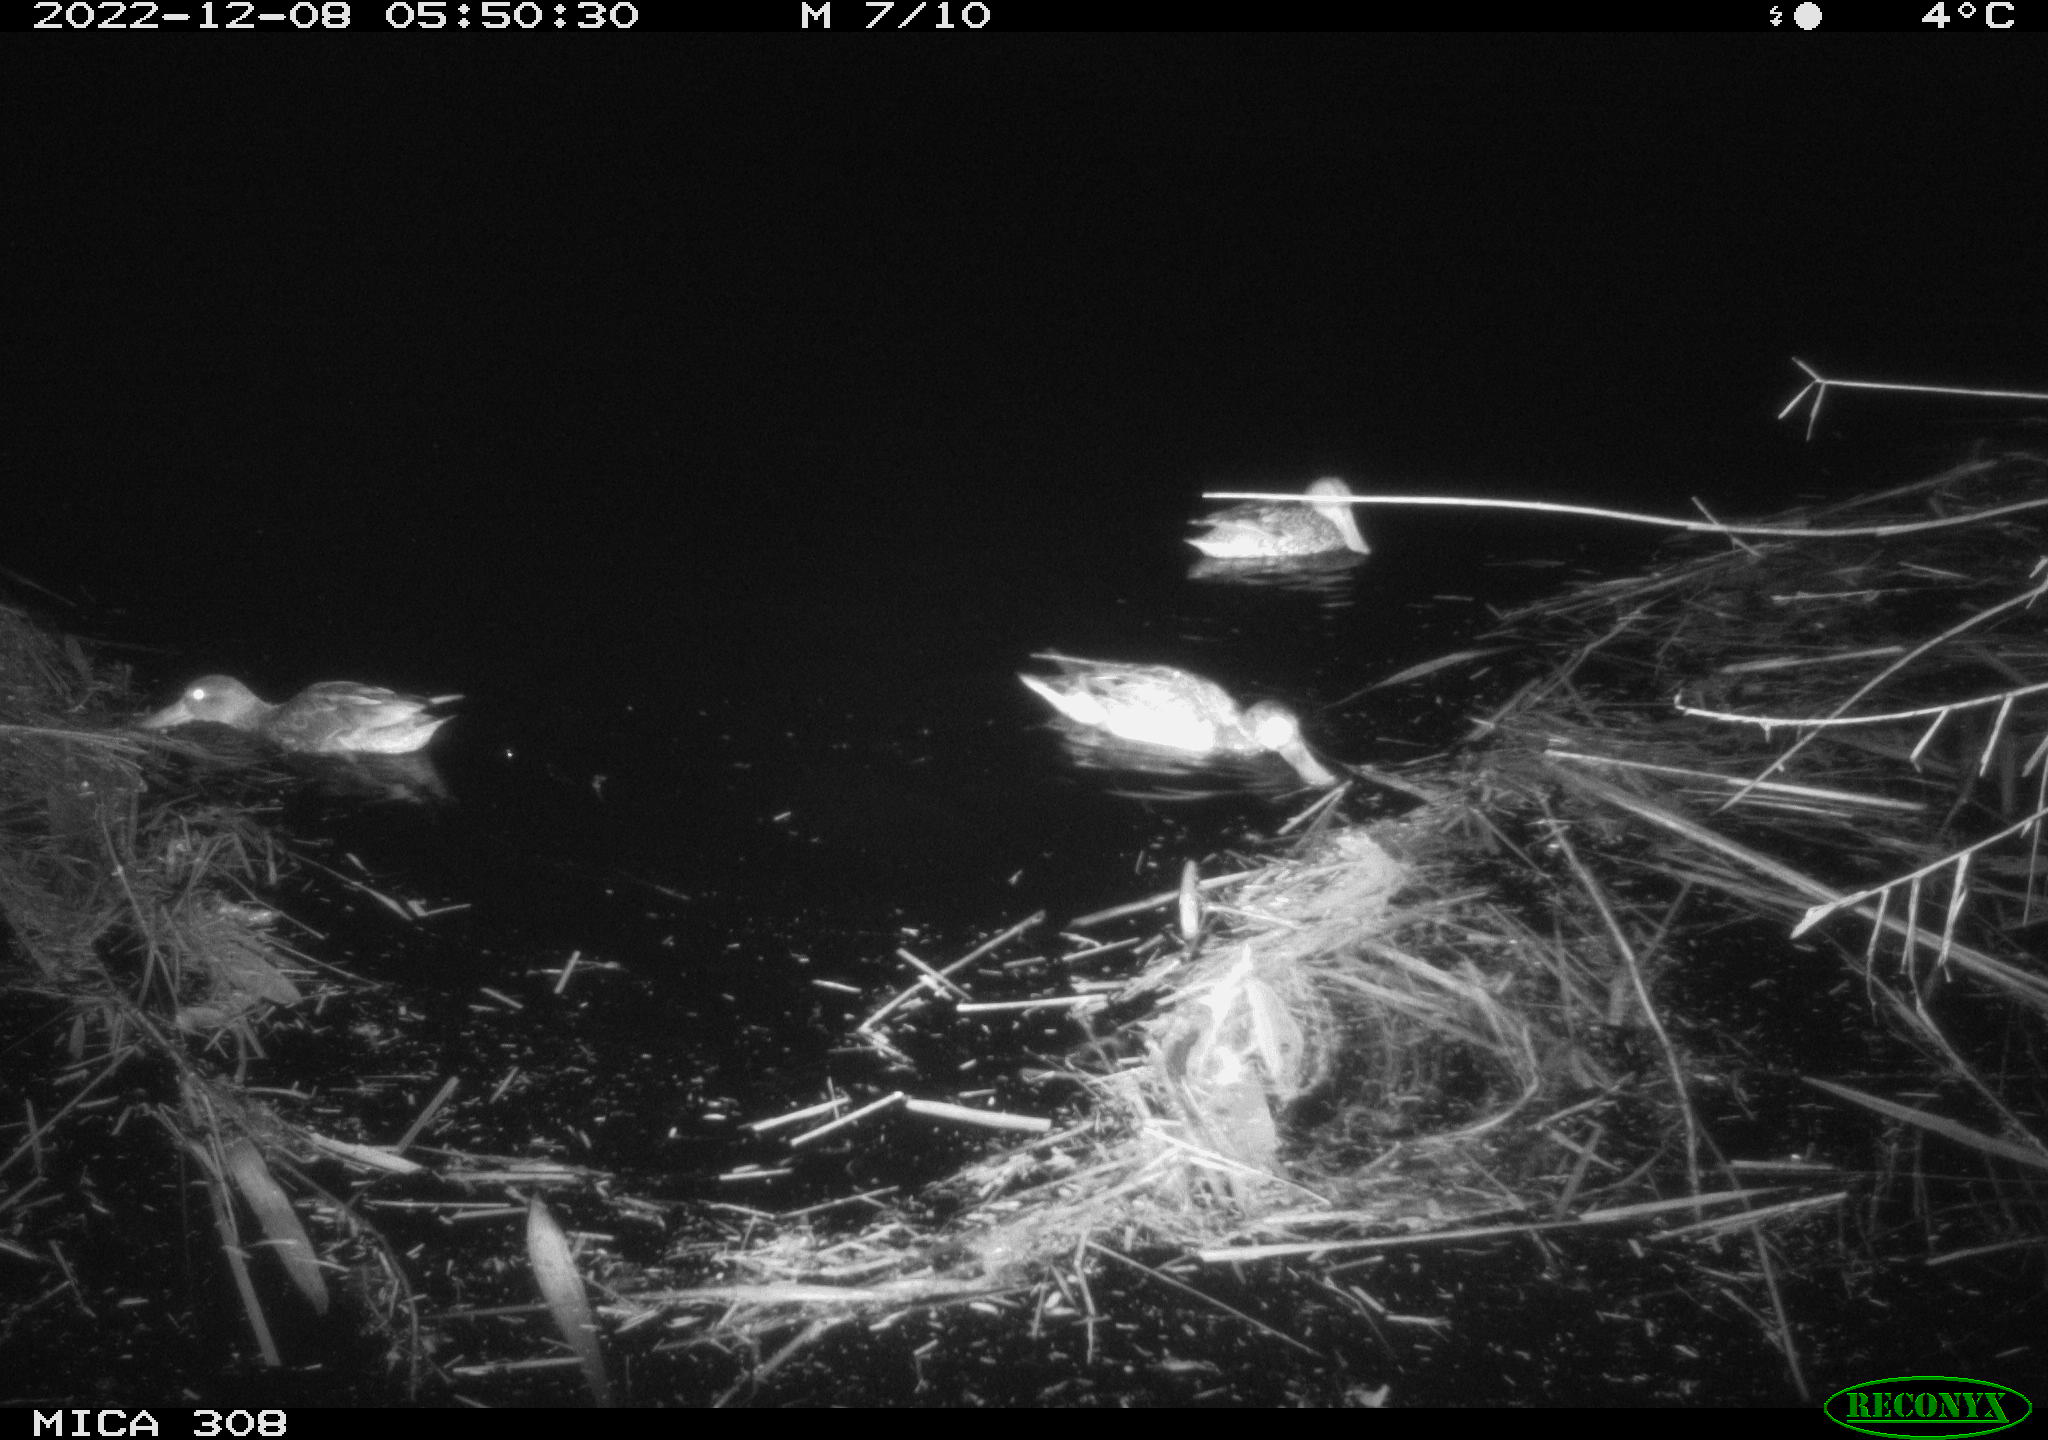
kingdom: Animalia
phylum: Chordata
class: Aves
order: Anseriformes
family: Anatidae
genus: Anas
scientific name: Anas
